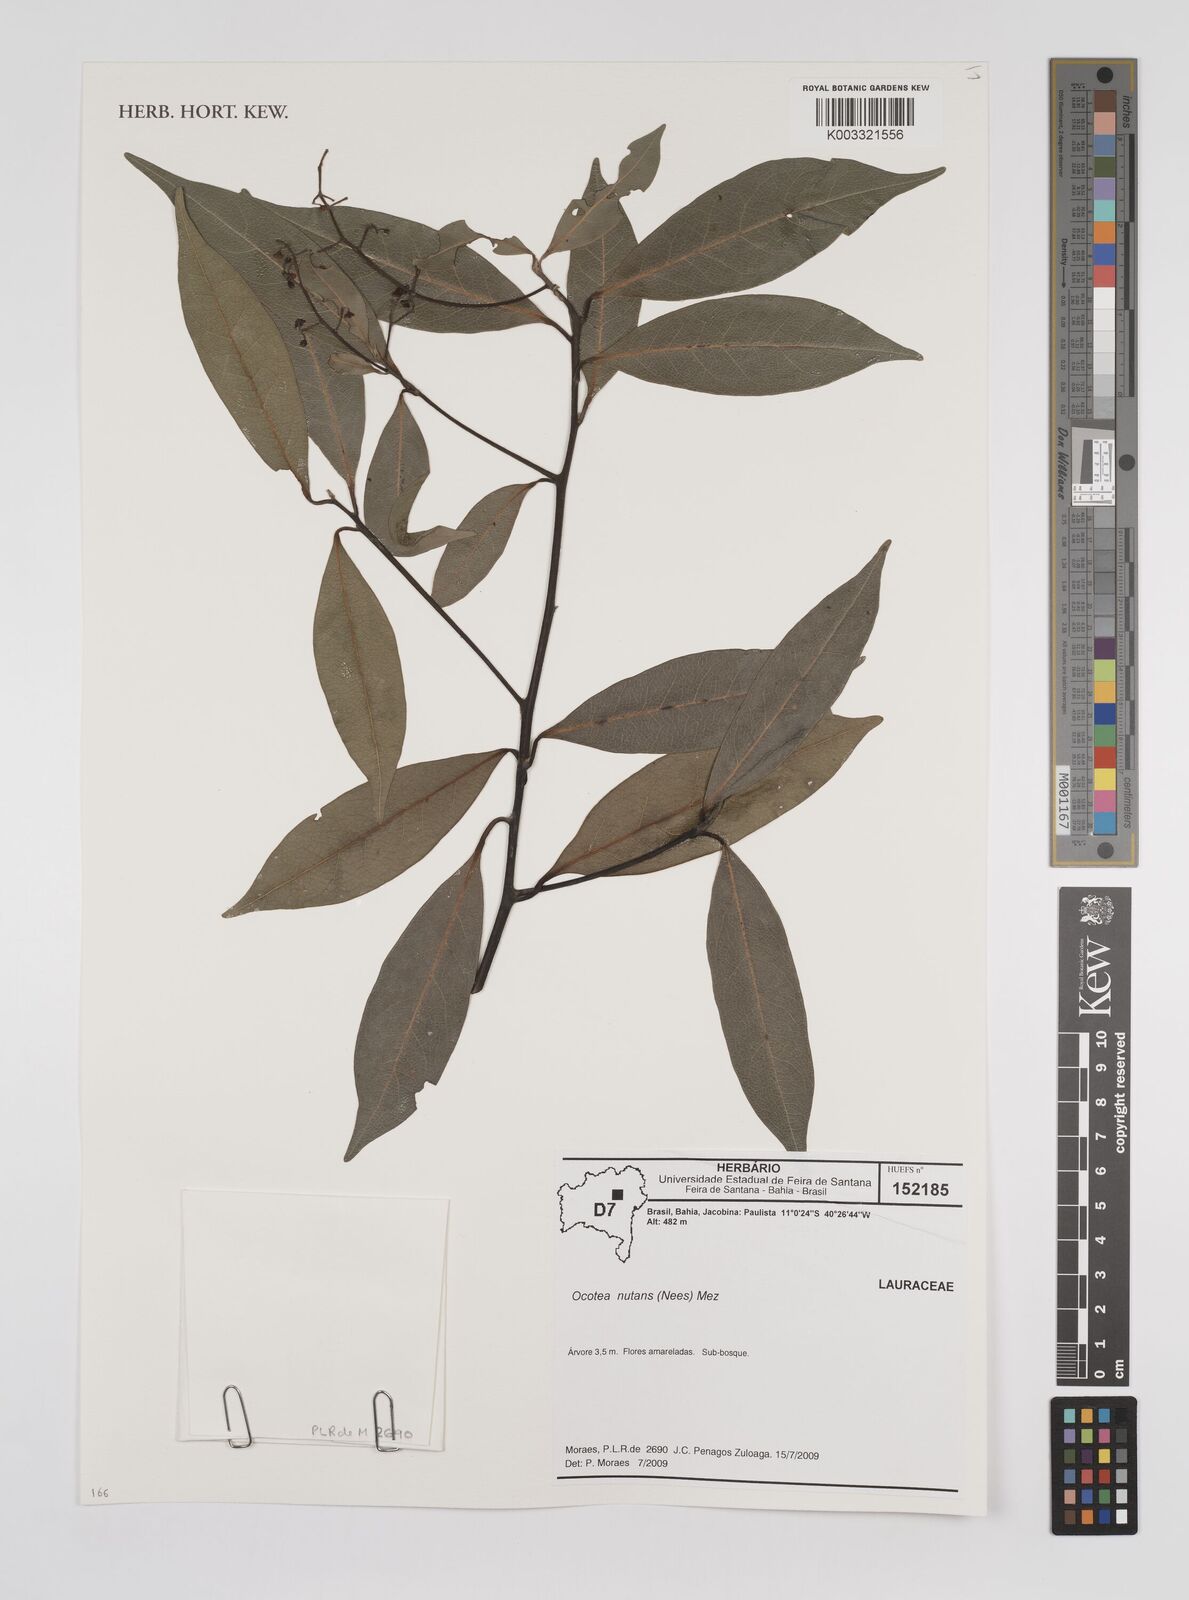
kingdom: Plantae
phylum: Tracheophyta
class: Magnoliopsida
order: Laurales
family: Lauraceae
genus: Mespilodaphne
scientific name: Mespilodaphne nutans
